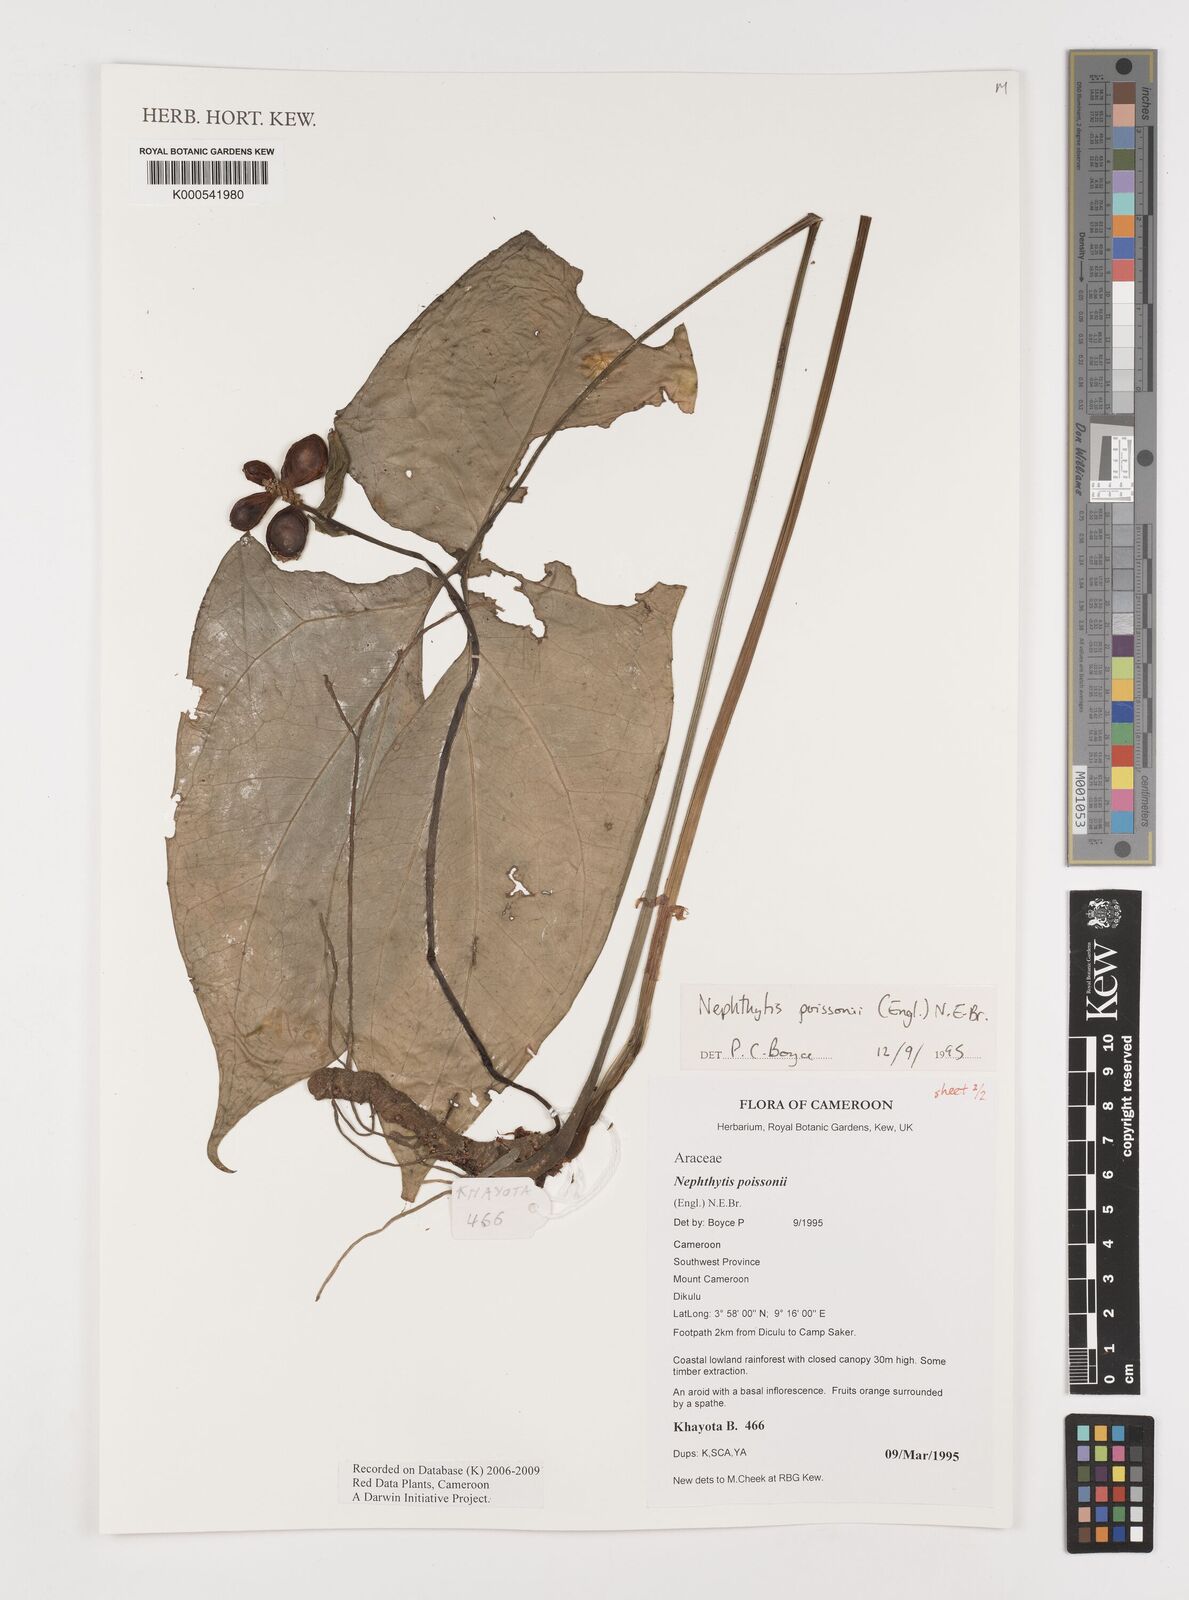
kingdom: Plantae
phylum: Tracheophyta
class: Liliopsida
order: Alismatales
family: Araceae
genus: Nephthytis
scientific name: Nephthytis poissonii
